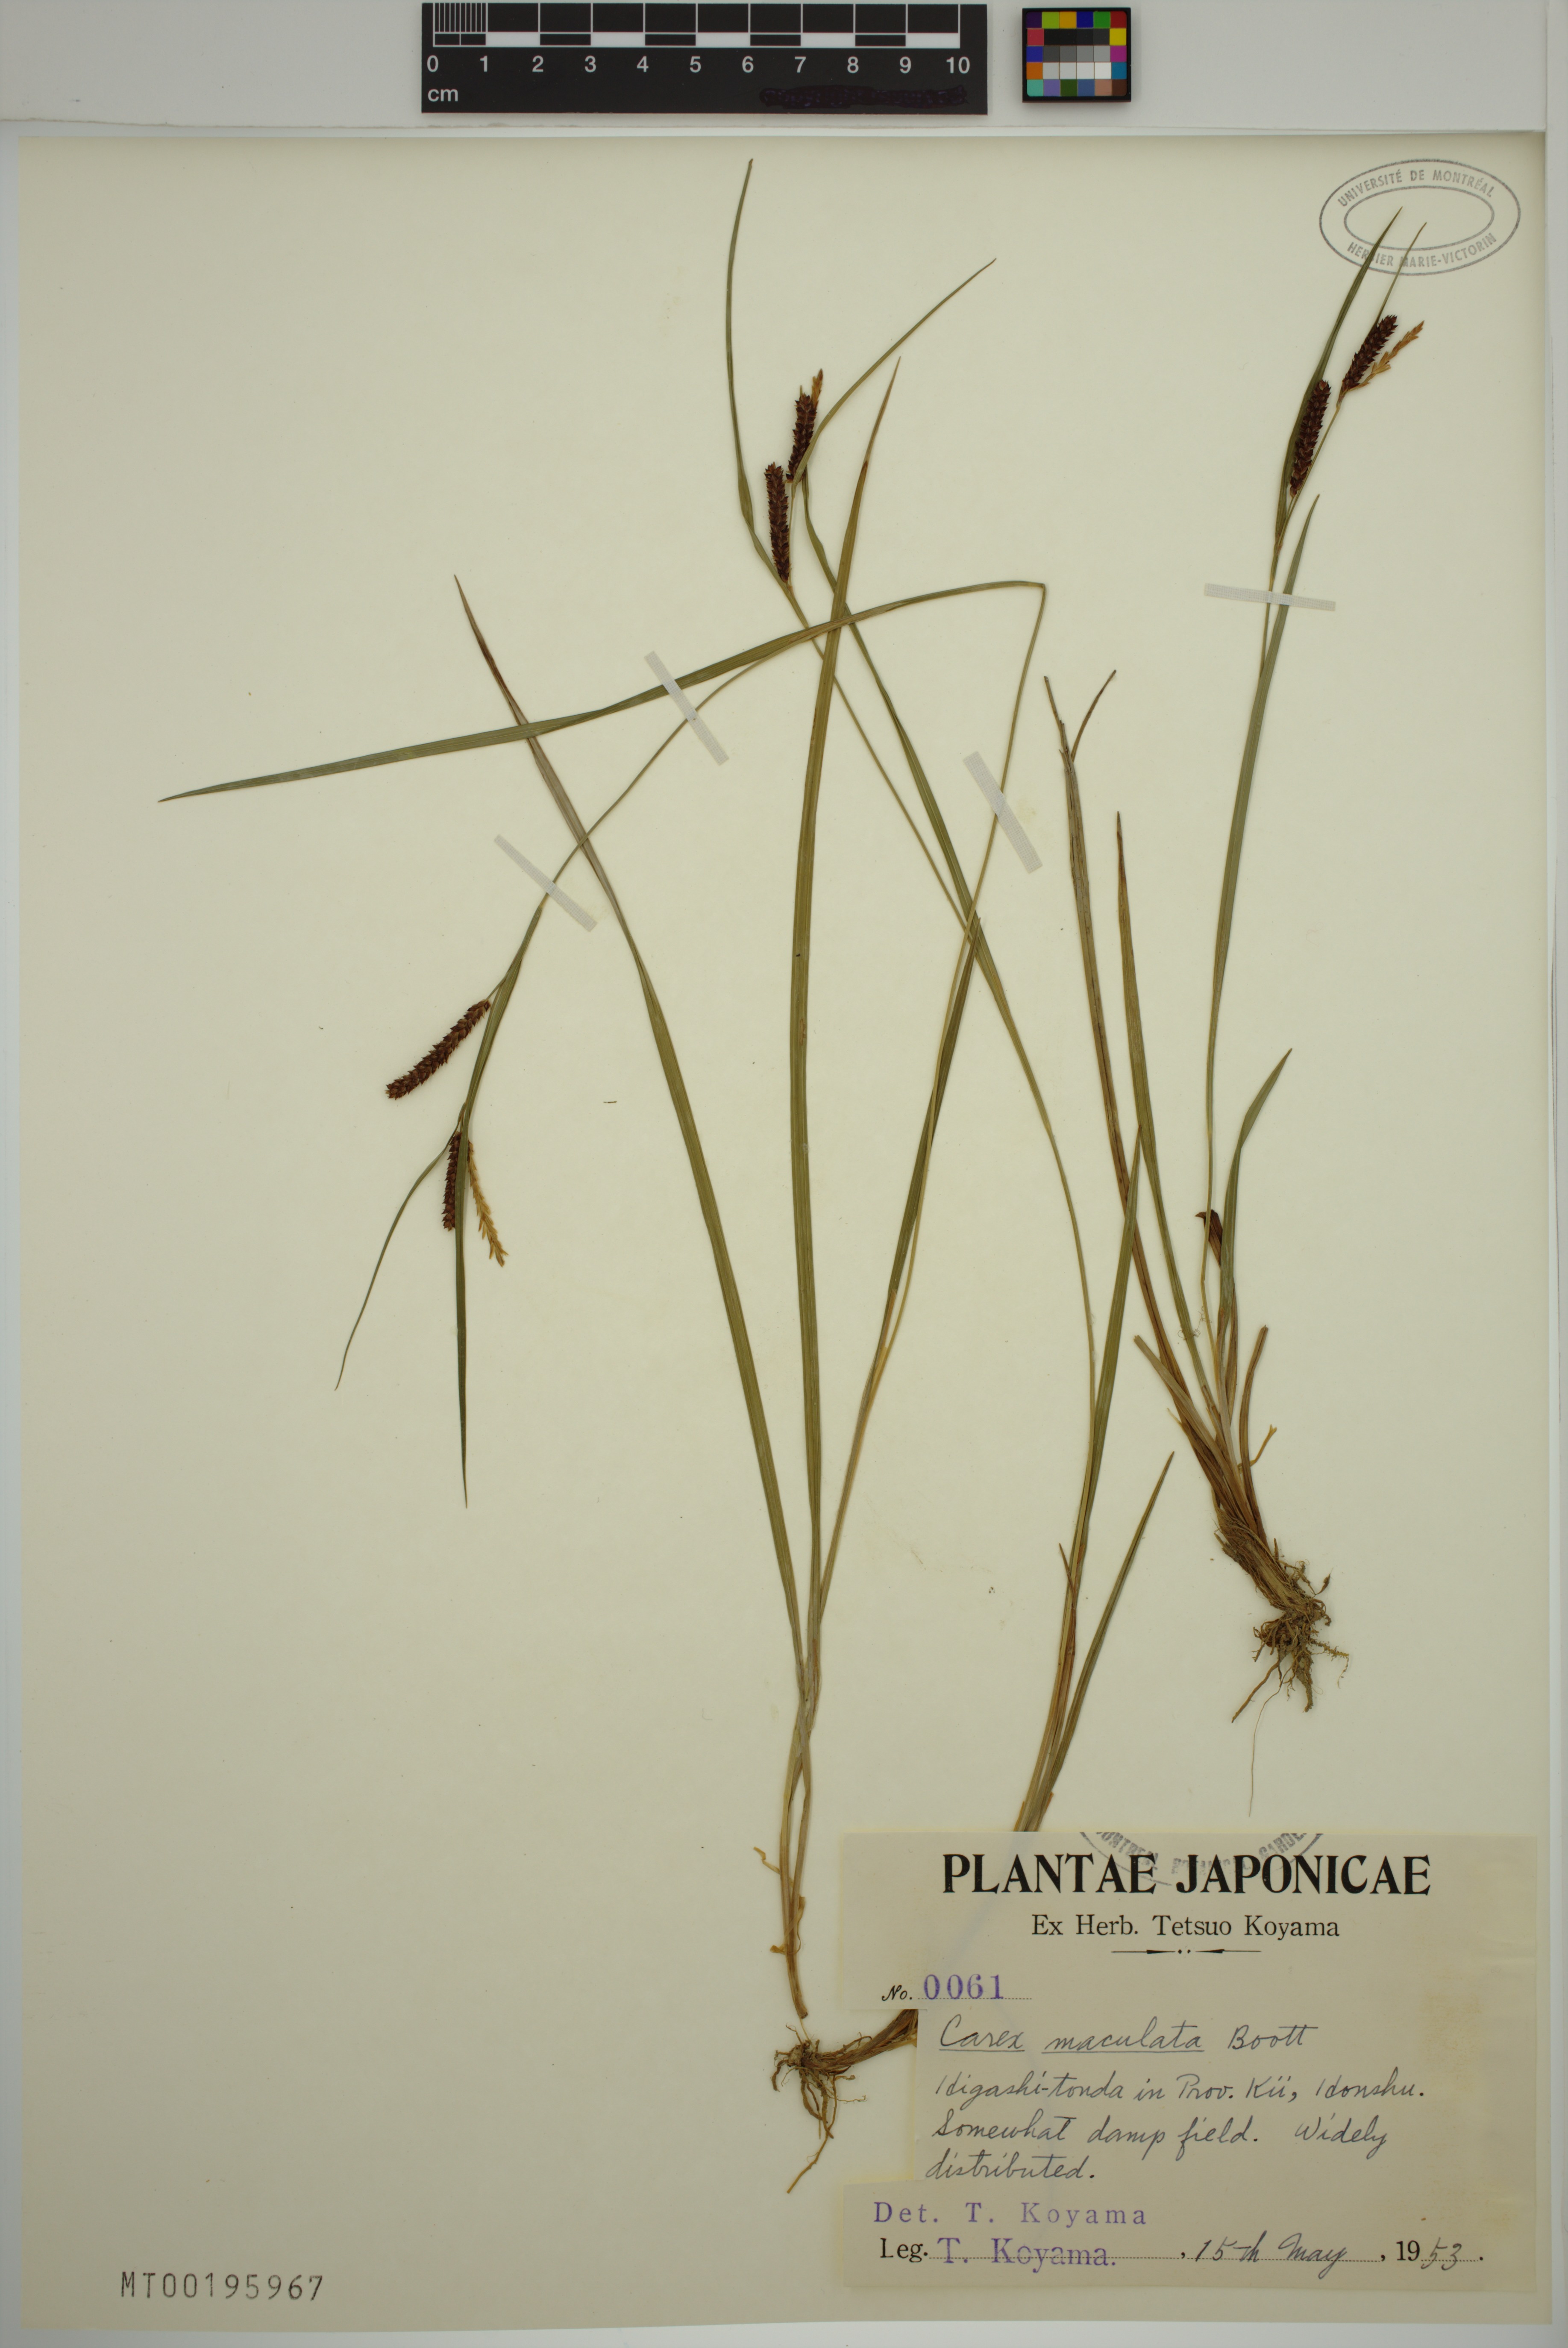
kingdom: Plantae
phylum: Tracheophyta
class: Liliopsida
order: Poales
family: Cyperaceae
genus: Carex
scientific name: Carex maculata
